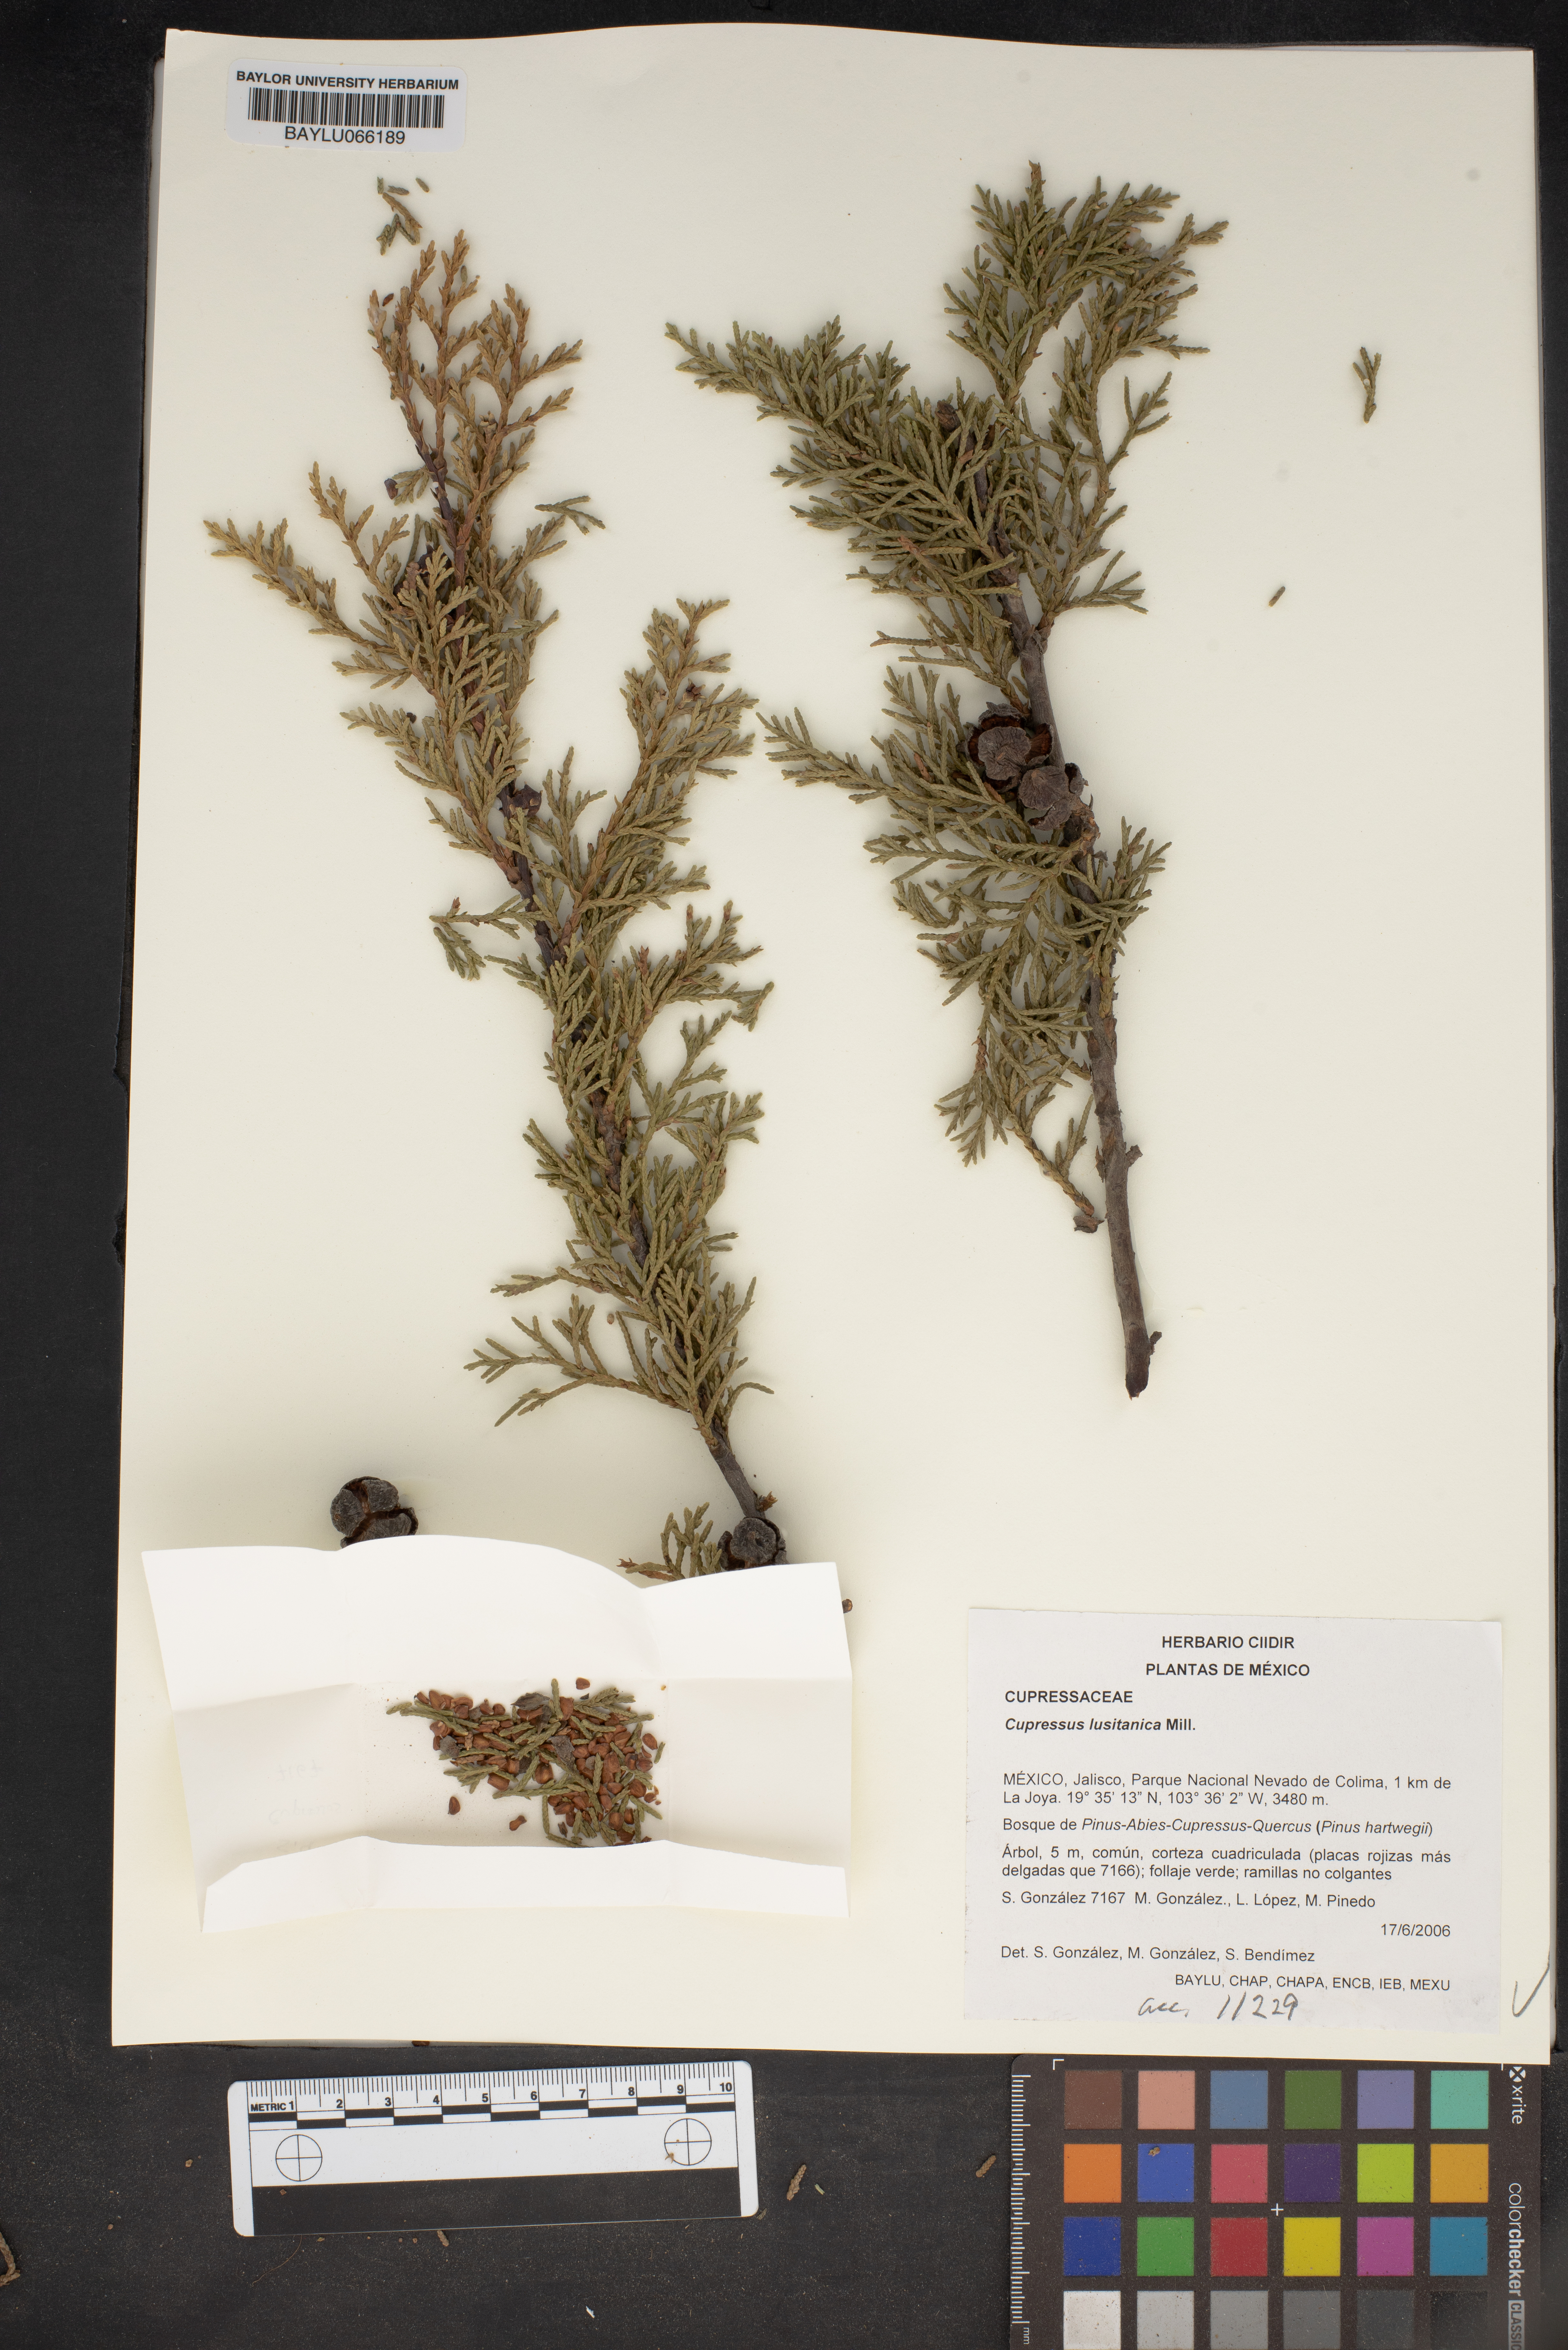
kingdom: Plantae
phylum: Tracheophyta
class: Pinopsida
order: Pinales
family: Cupressaceae
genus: Cupressus
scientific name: Cupressus lusitanica
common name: Mexican cypress
